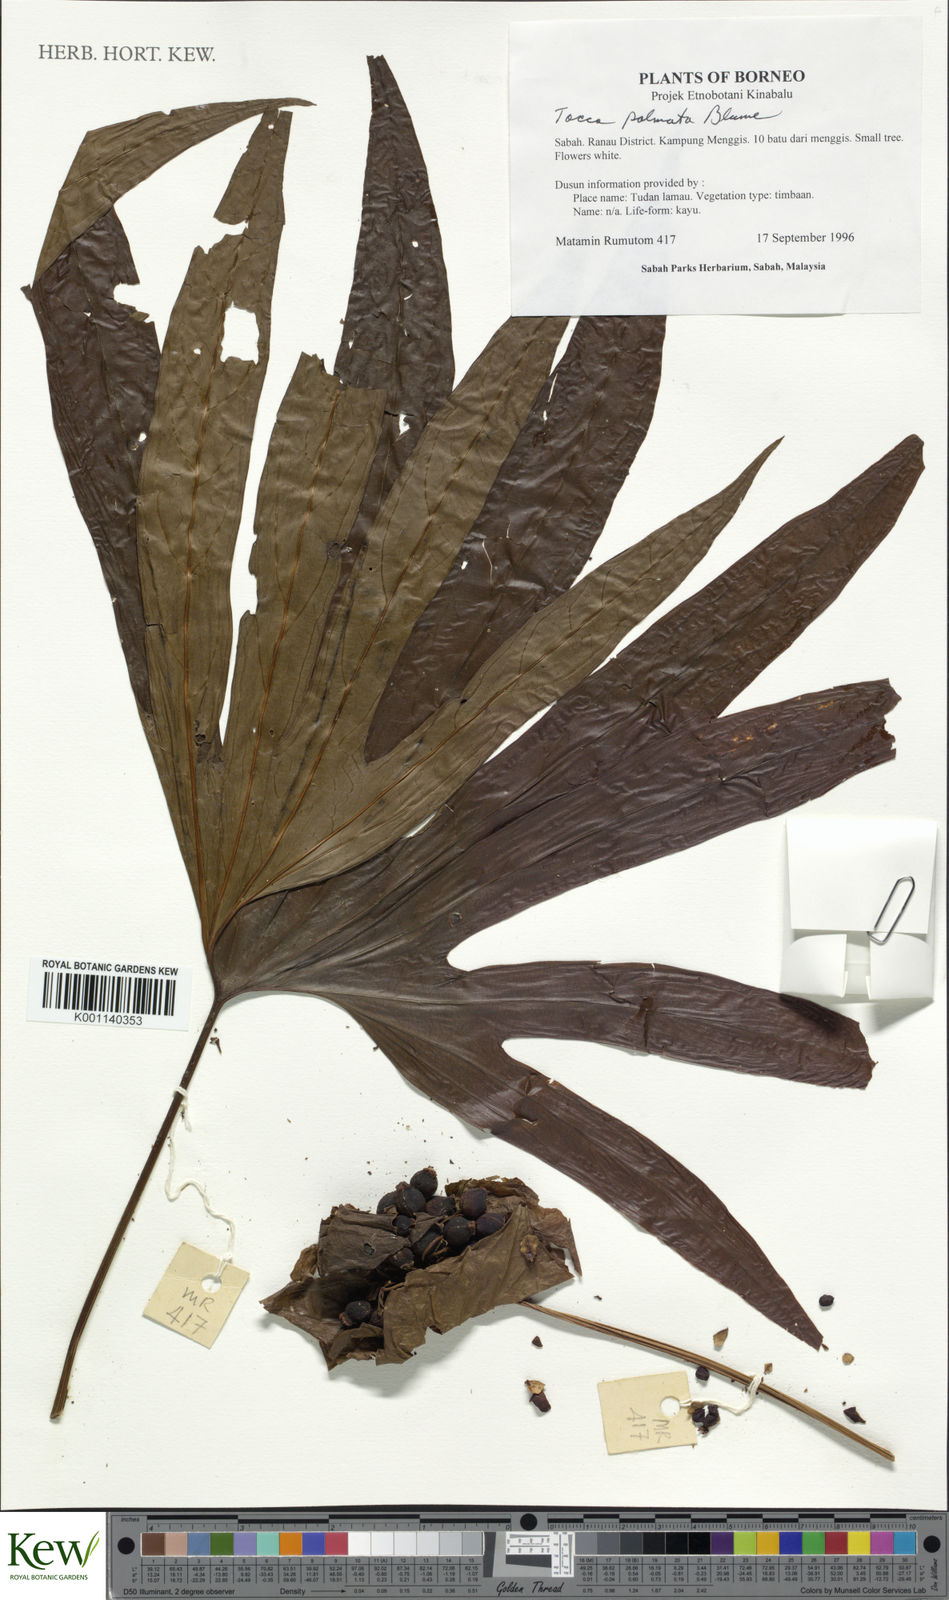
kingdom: Plantae
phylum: Tracheophyta
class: Liliopsida
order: Dioscoreales
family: Dioscoreaceae
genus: Tacca
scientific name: Tacca palmata
